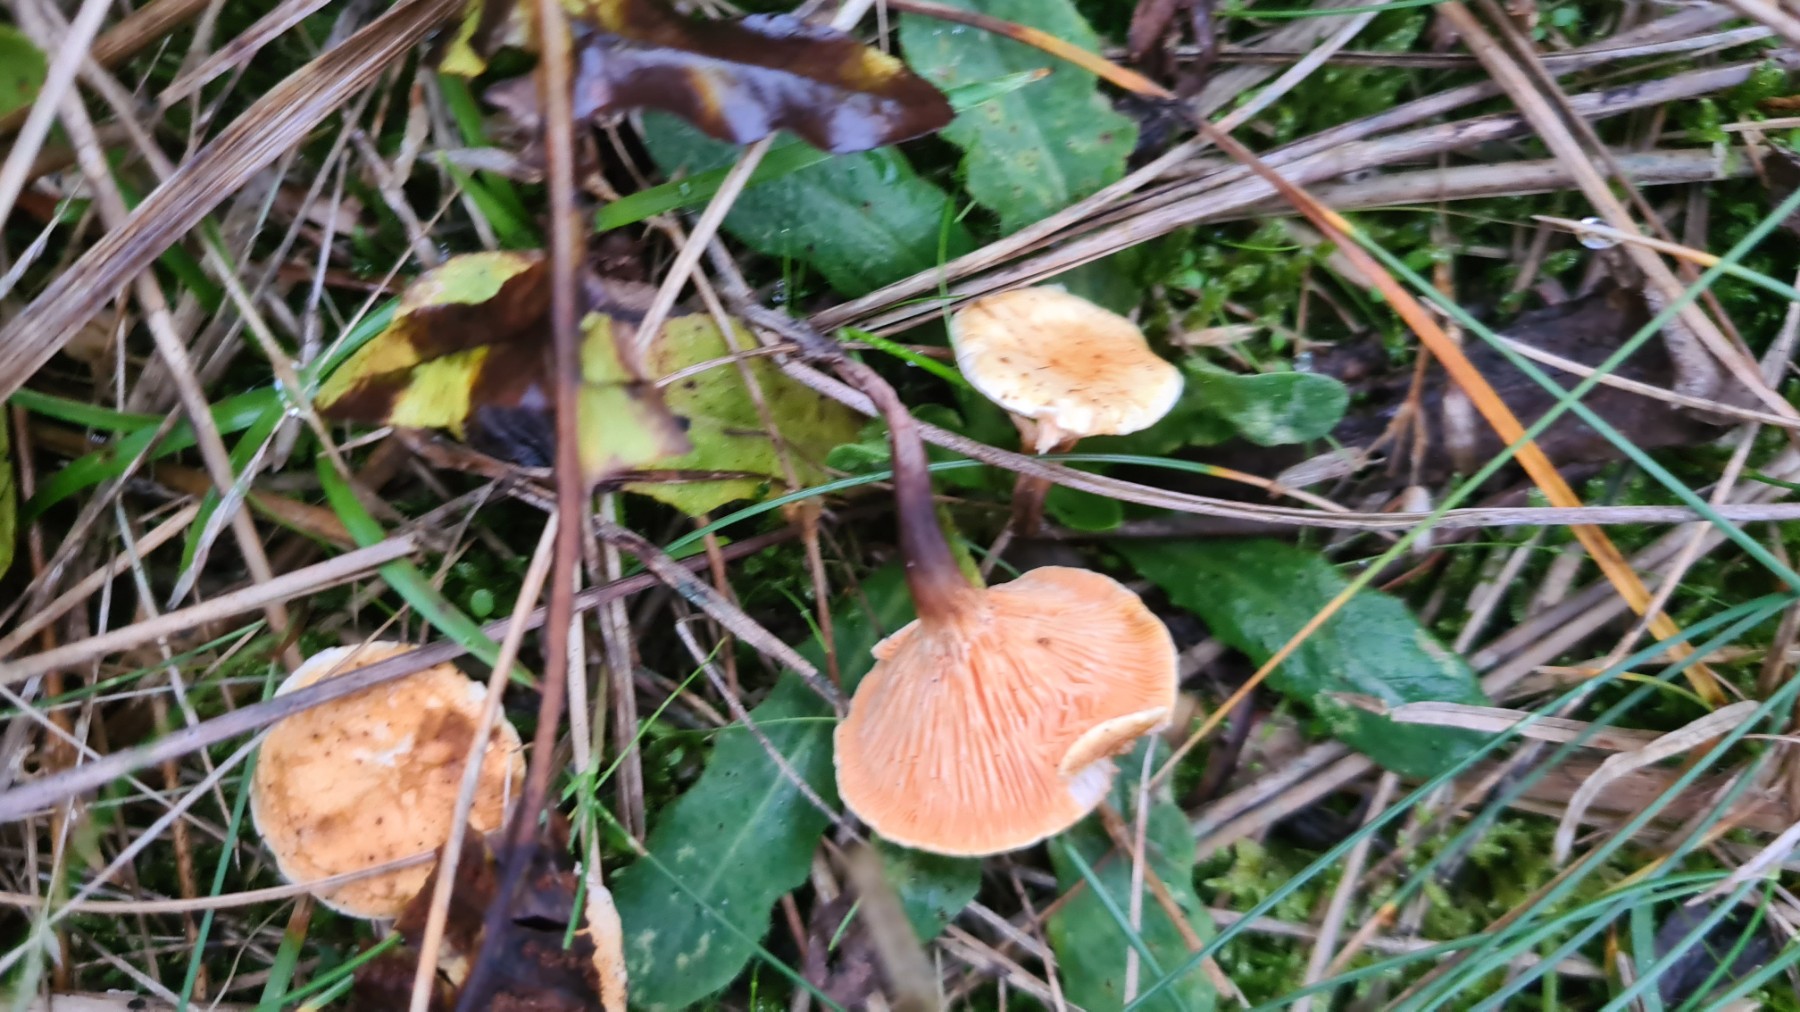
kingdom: Fungi
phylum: Basidiomycota
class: Agaricomycetes
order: Boletales
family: Hygrophoropsidaceae
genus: Hygrophoropsis
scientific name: Hygrophoropsis aurantiaca
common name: almindelig orangekantarel
